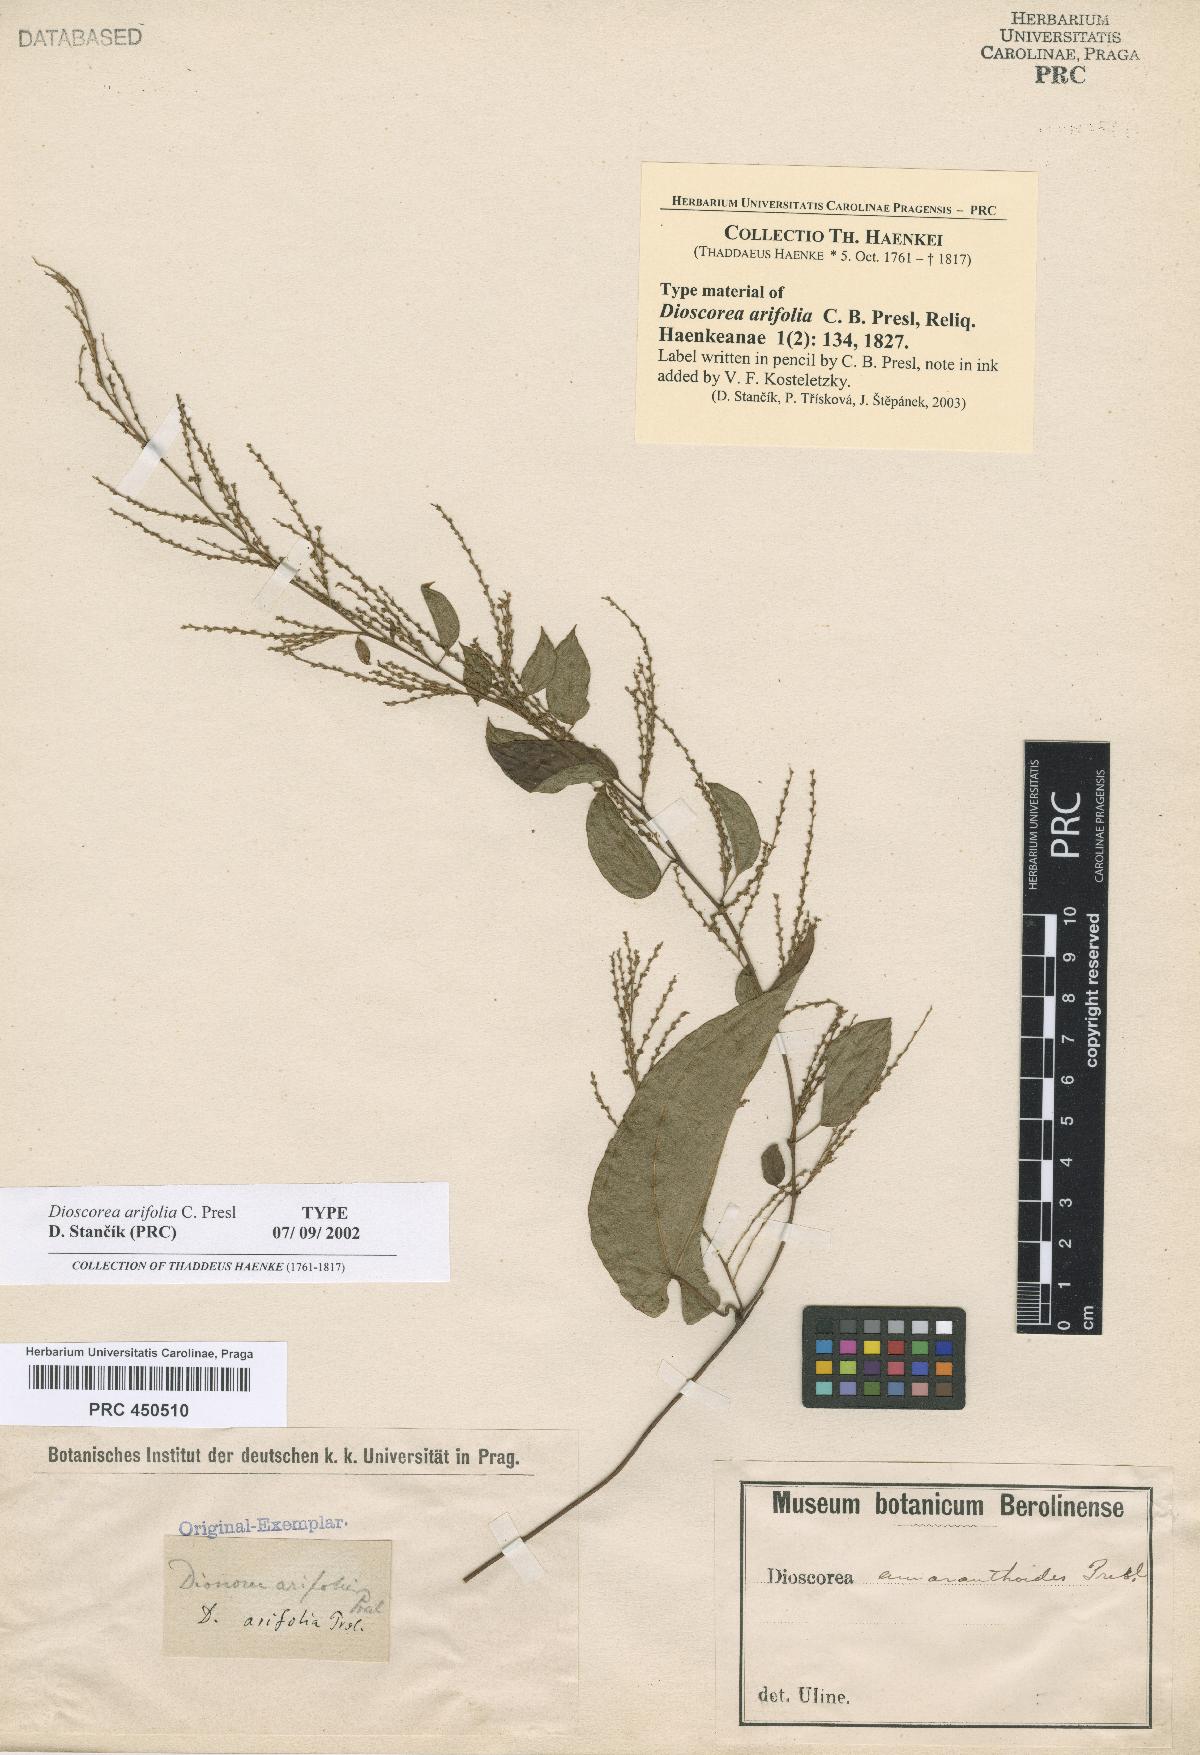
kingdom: Plantae
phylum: Tracheophyta
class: Liliopsida
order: Dioscoreales
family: Dioscoreaceae
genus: Dioscorea
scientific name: Dioscorea arifolia
